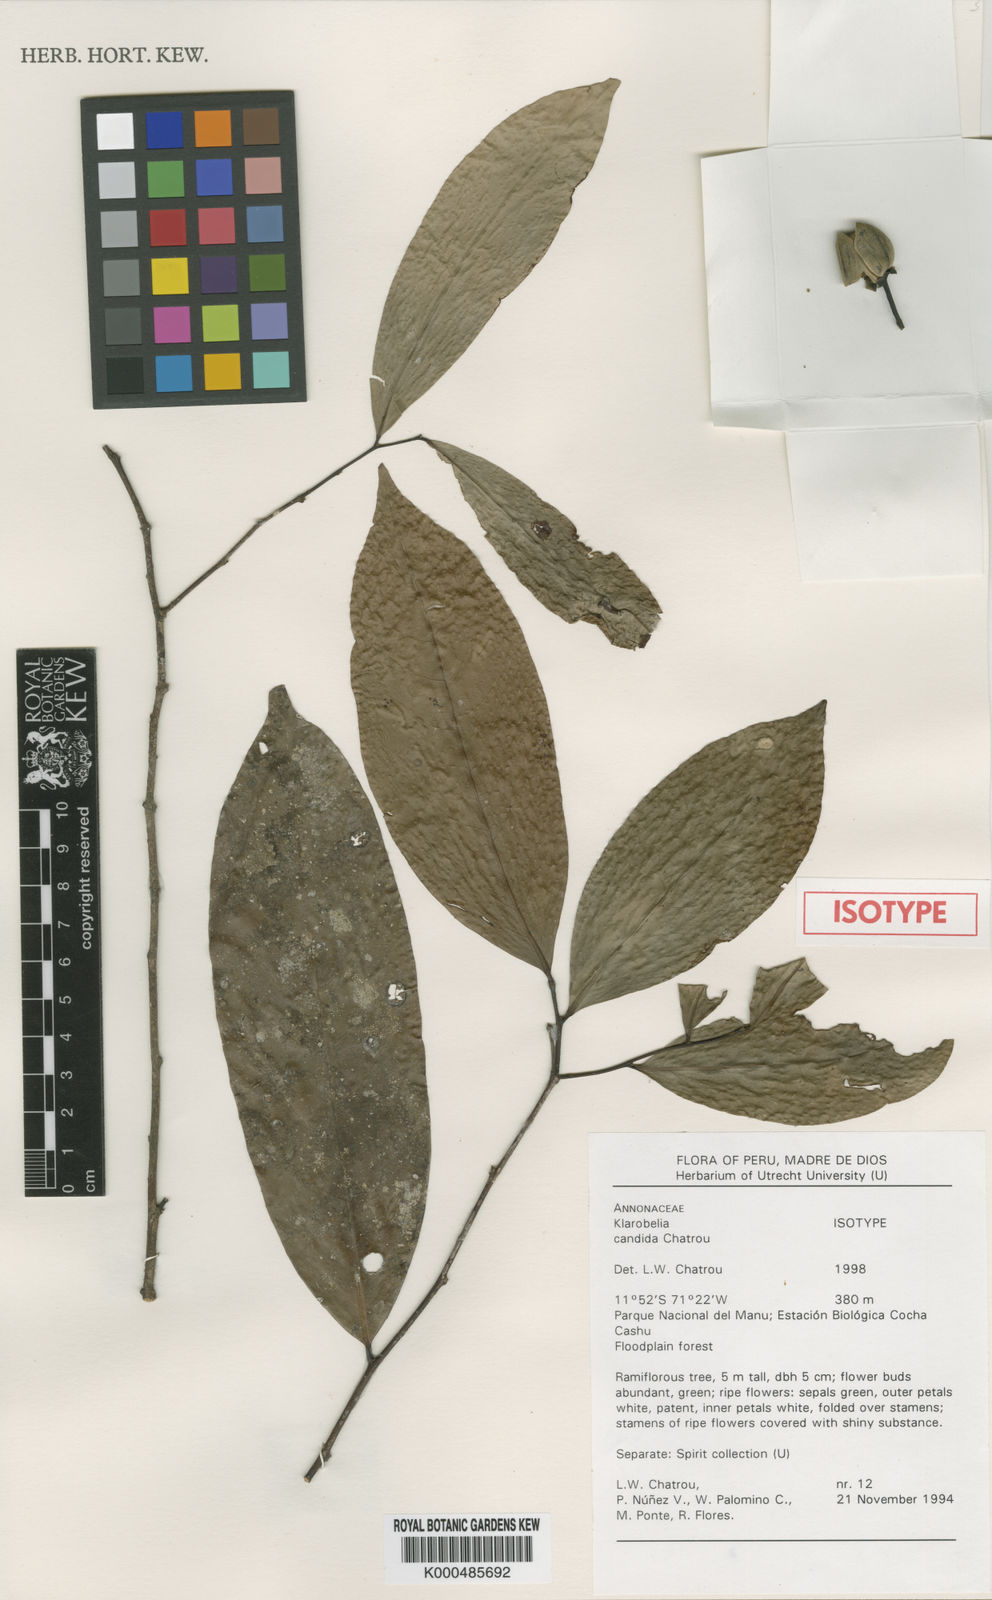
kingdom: Plantae
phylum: Tracheophyta
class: Magnoliopsida
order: Magnoliales
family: Annonaceae
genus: Klarobelia
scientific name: Klarobelia candida
